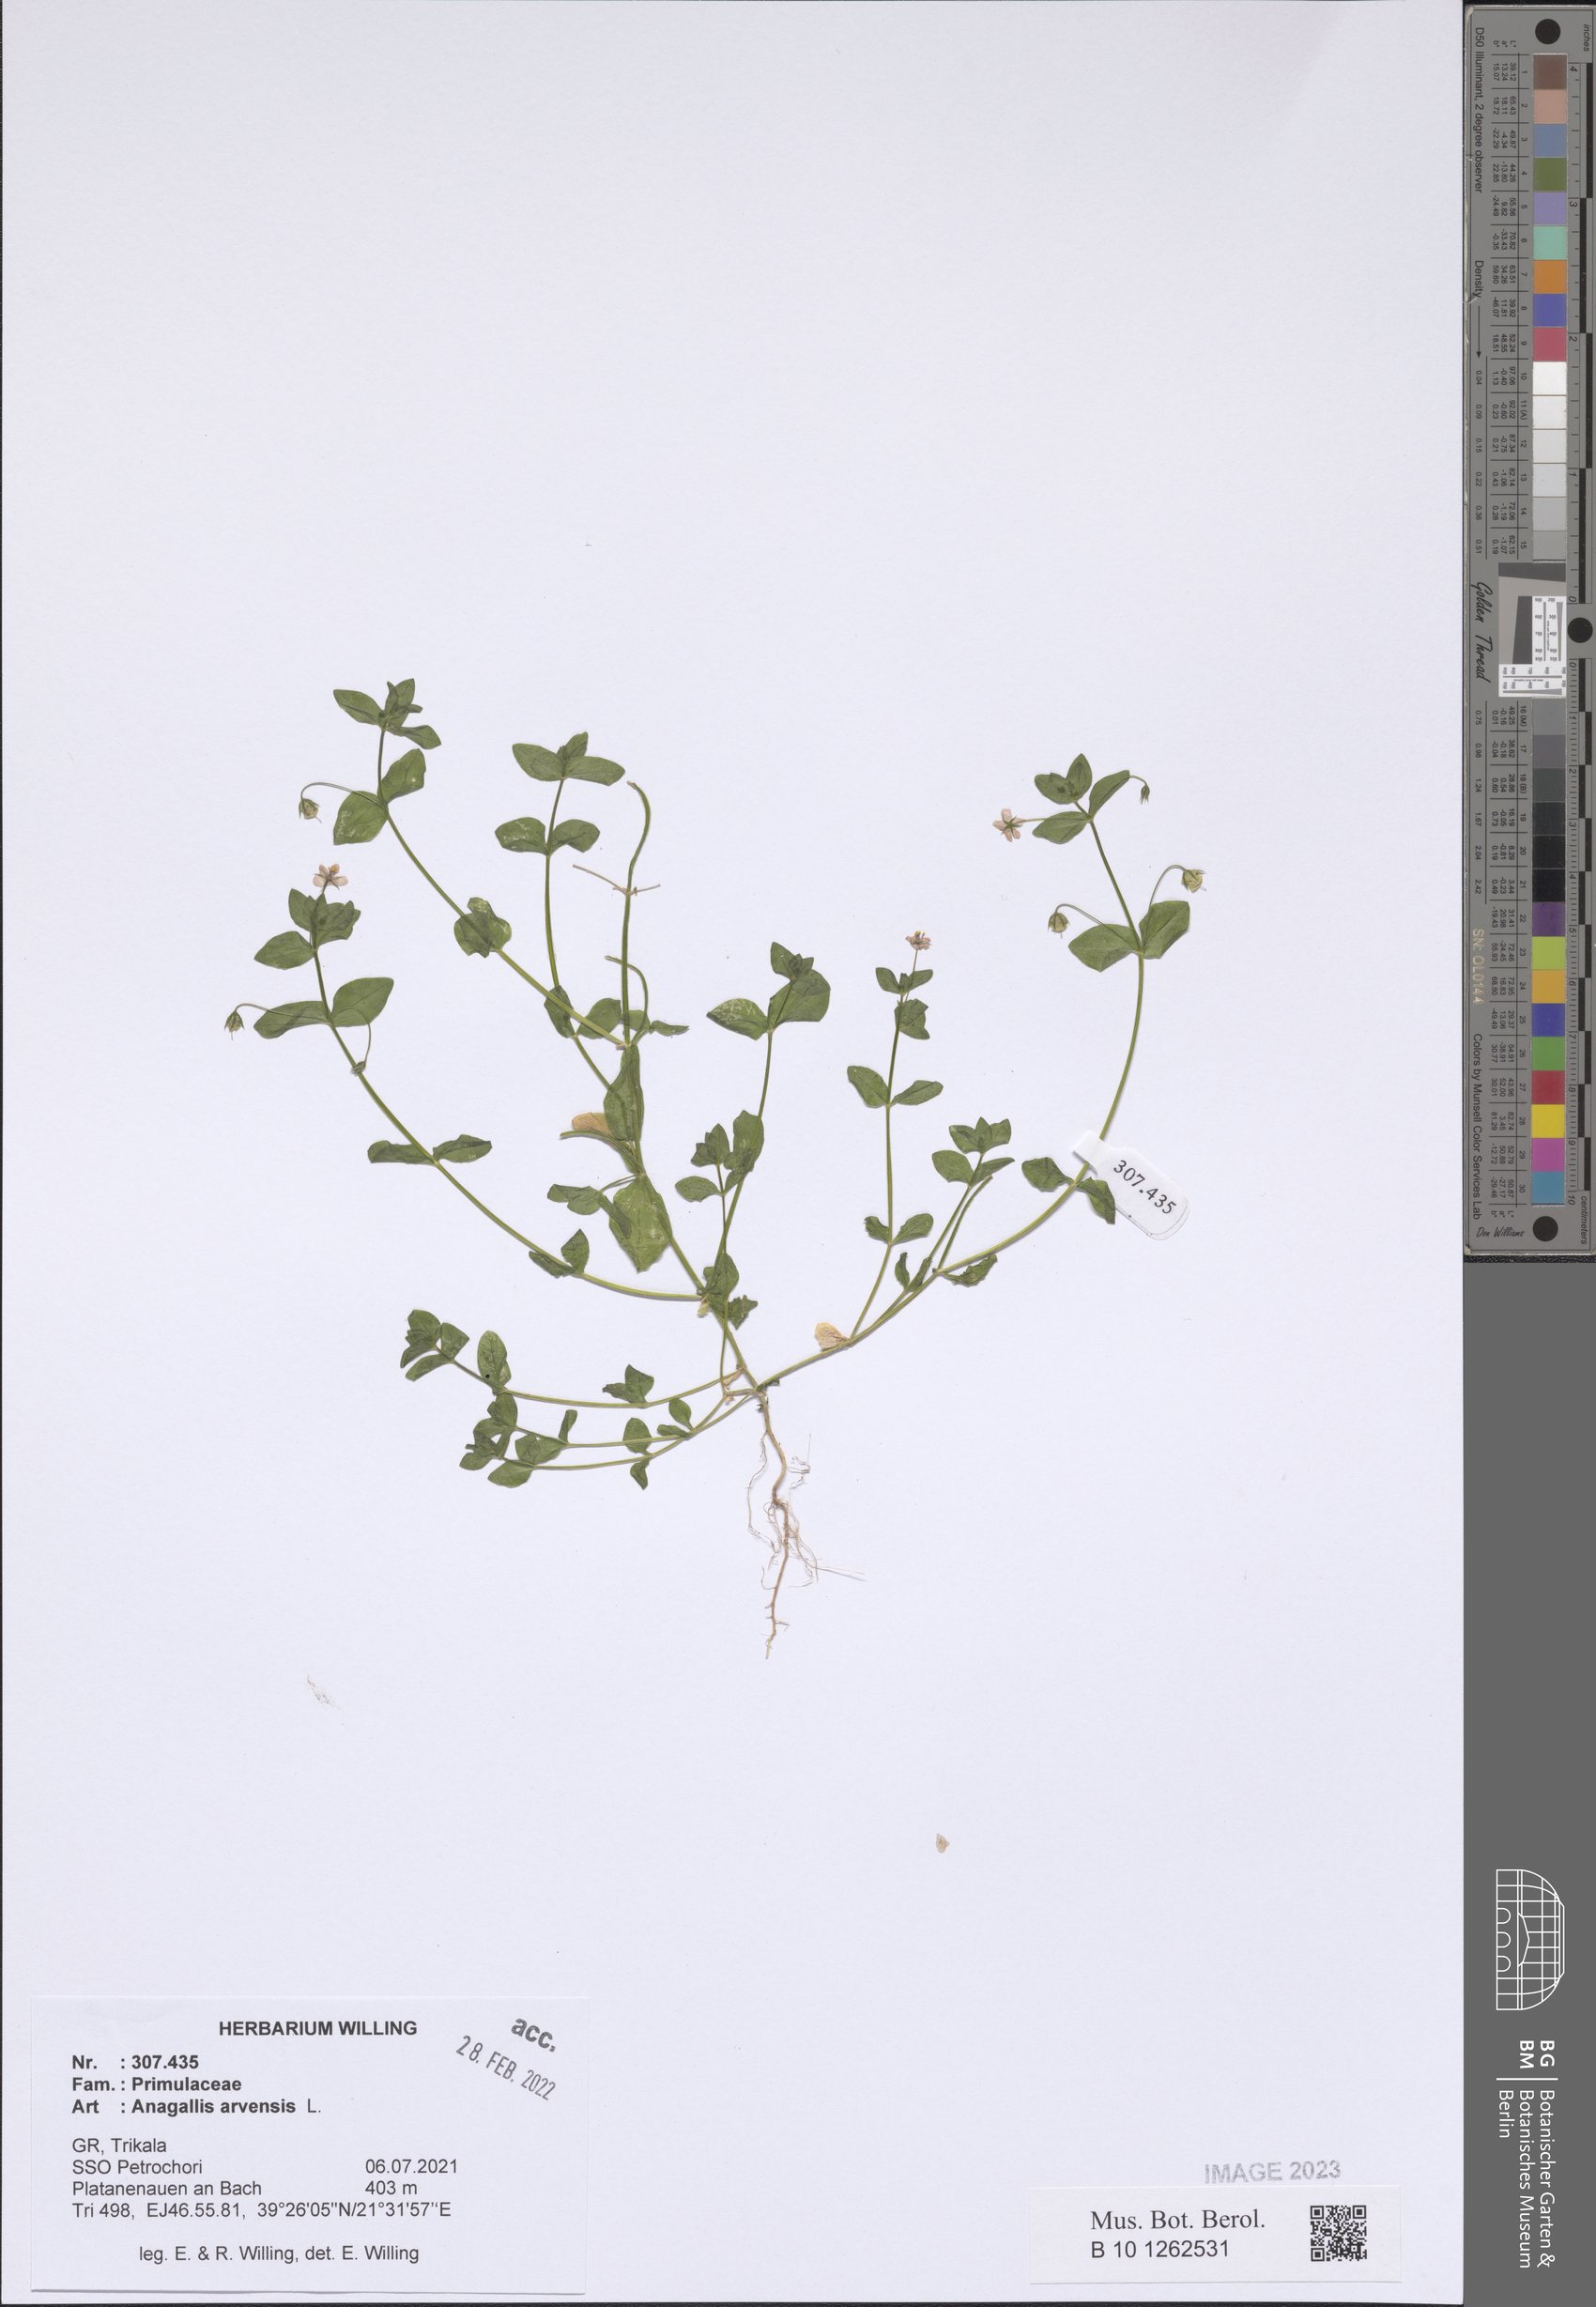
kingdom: Plantae
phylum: Tracheophyta
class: Magnoliopsida
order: Ericales
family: Primulaceae
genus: Lysimachia
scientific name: Lysimachia arvensis
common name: Scarlet pimpernel
